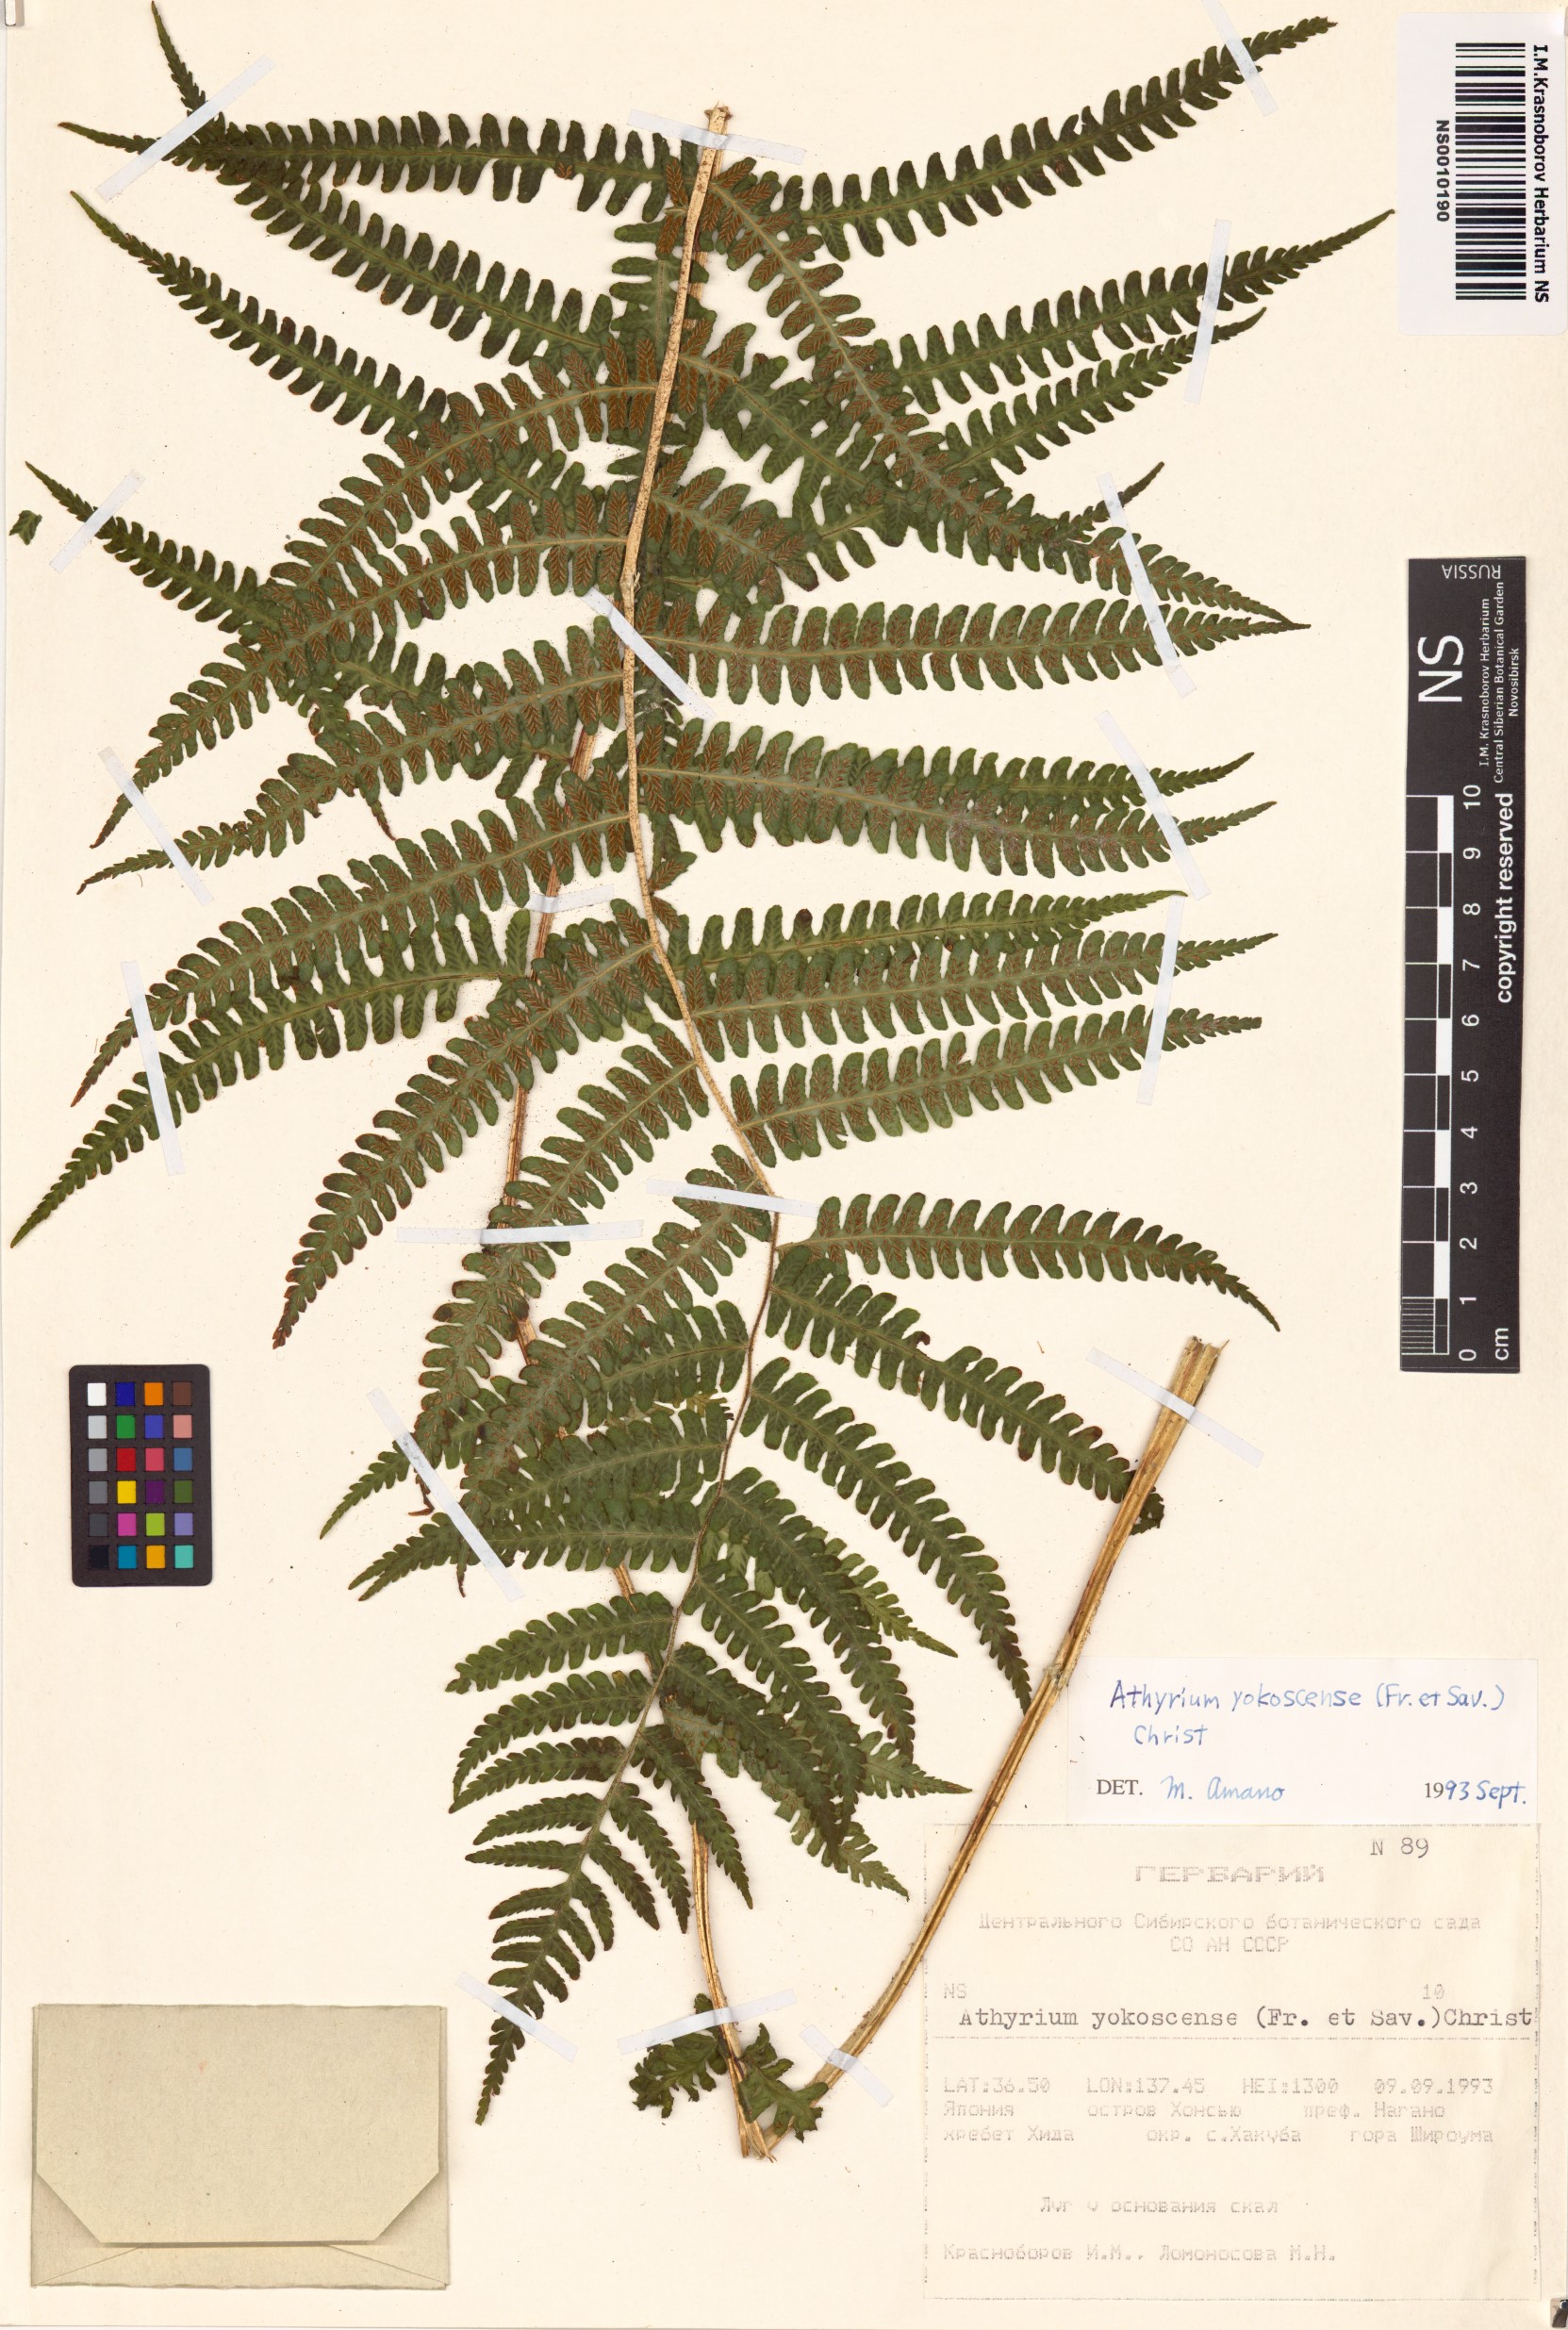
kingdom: Plantae
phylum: Tracheophyta
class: Polypodiopsida
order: Polypodiales
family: Athyriaceae
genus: Athyrium
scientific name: Athyrium yokoscense
